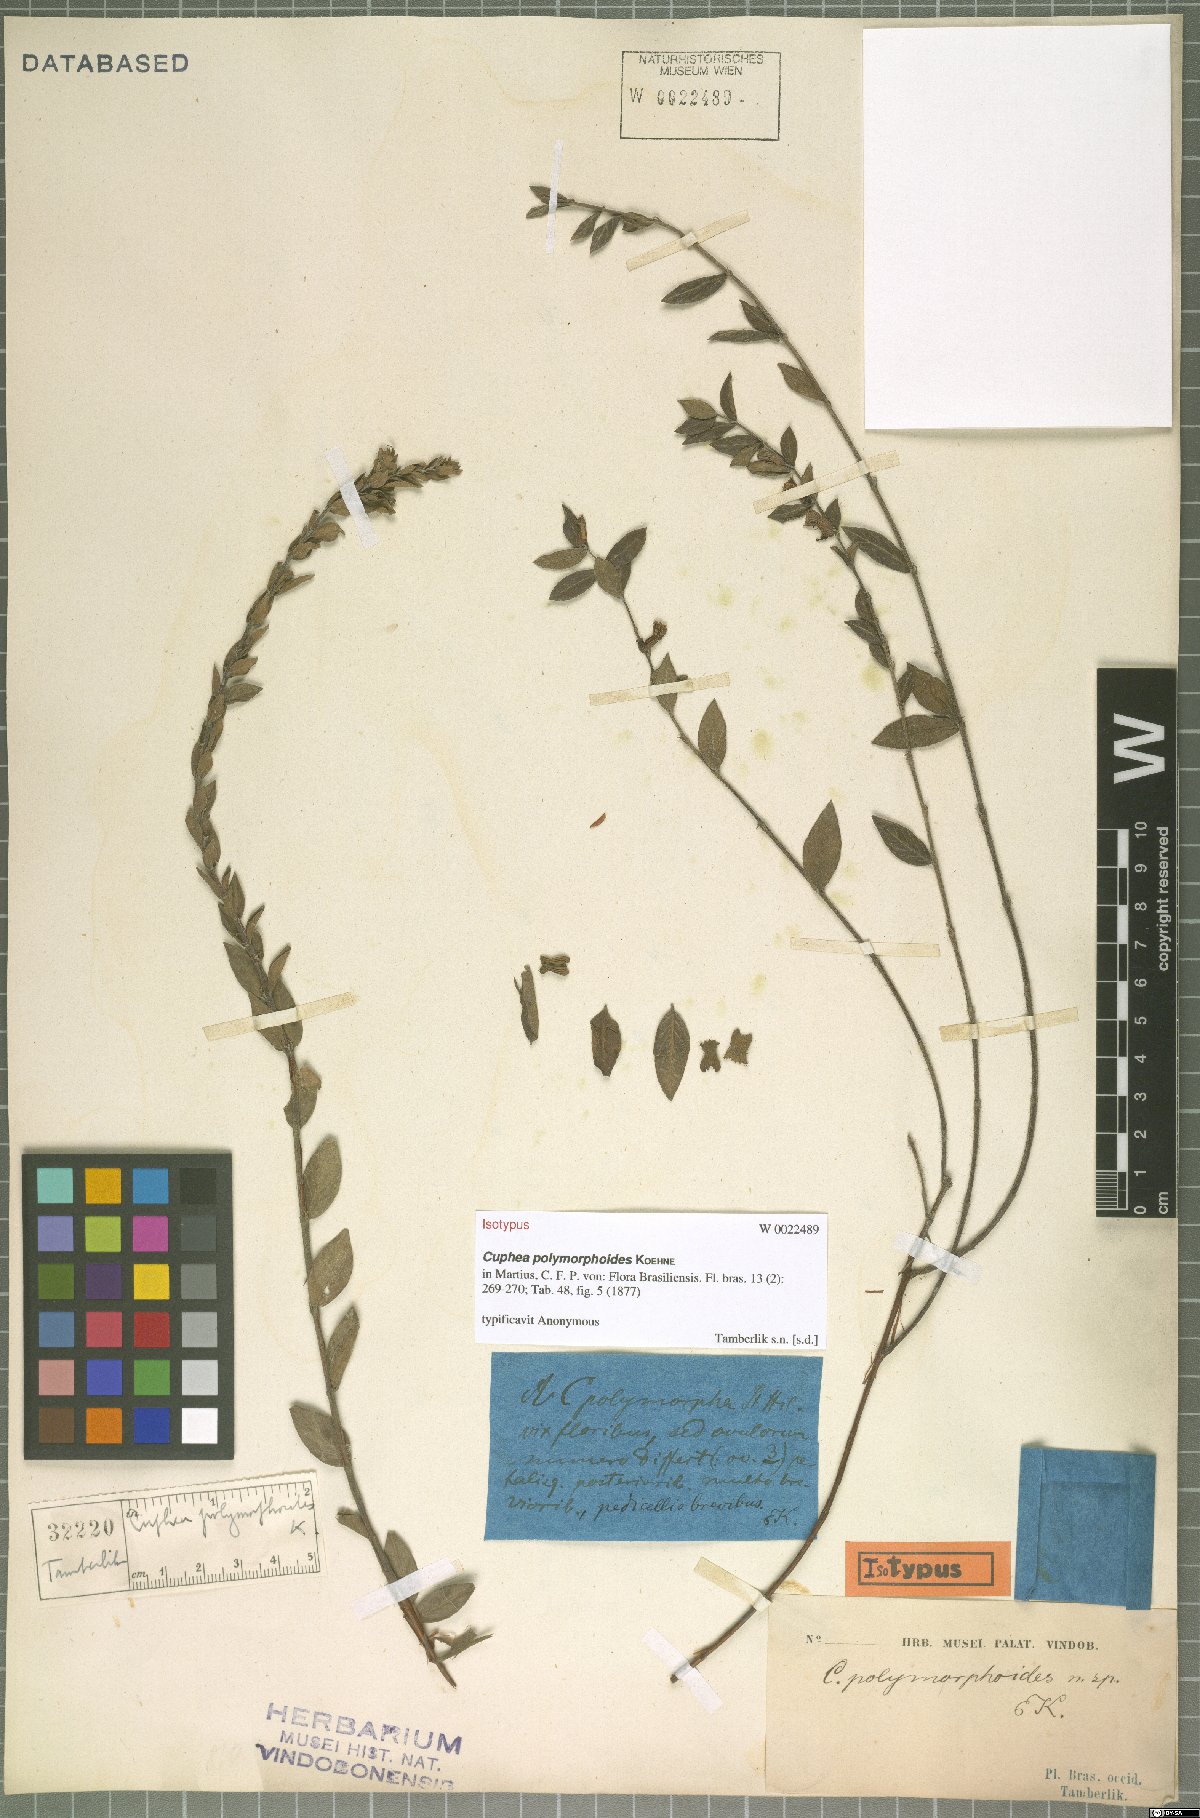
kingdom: Plantae
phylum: Tracheophyta
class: Magnoliopsida
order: Myrtales
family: Lythraceae
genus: Cuphea
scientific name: Cuphea spermacoce
